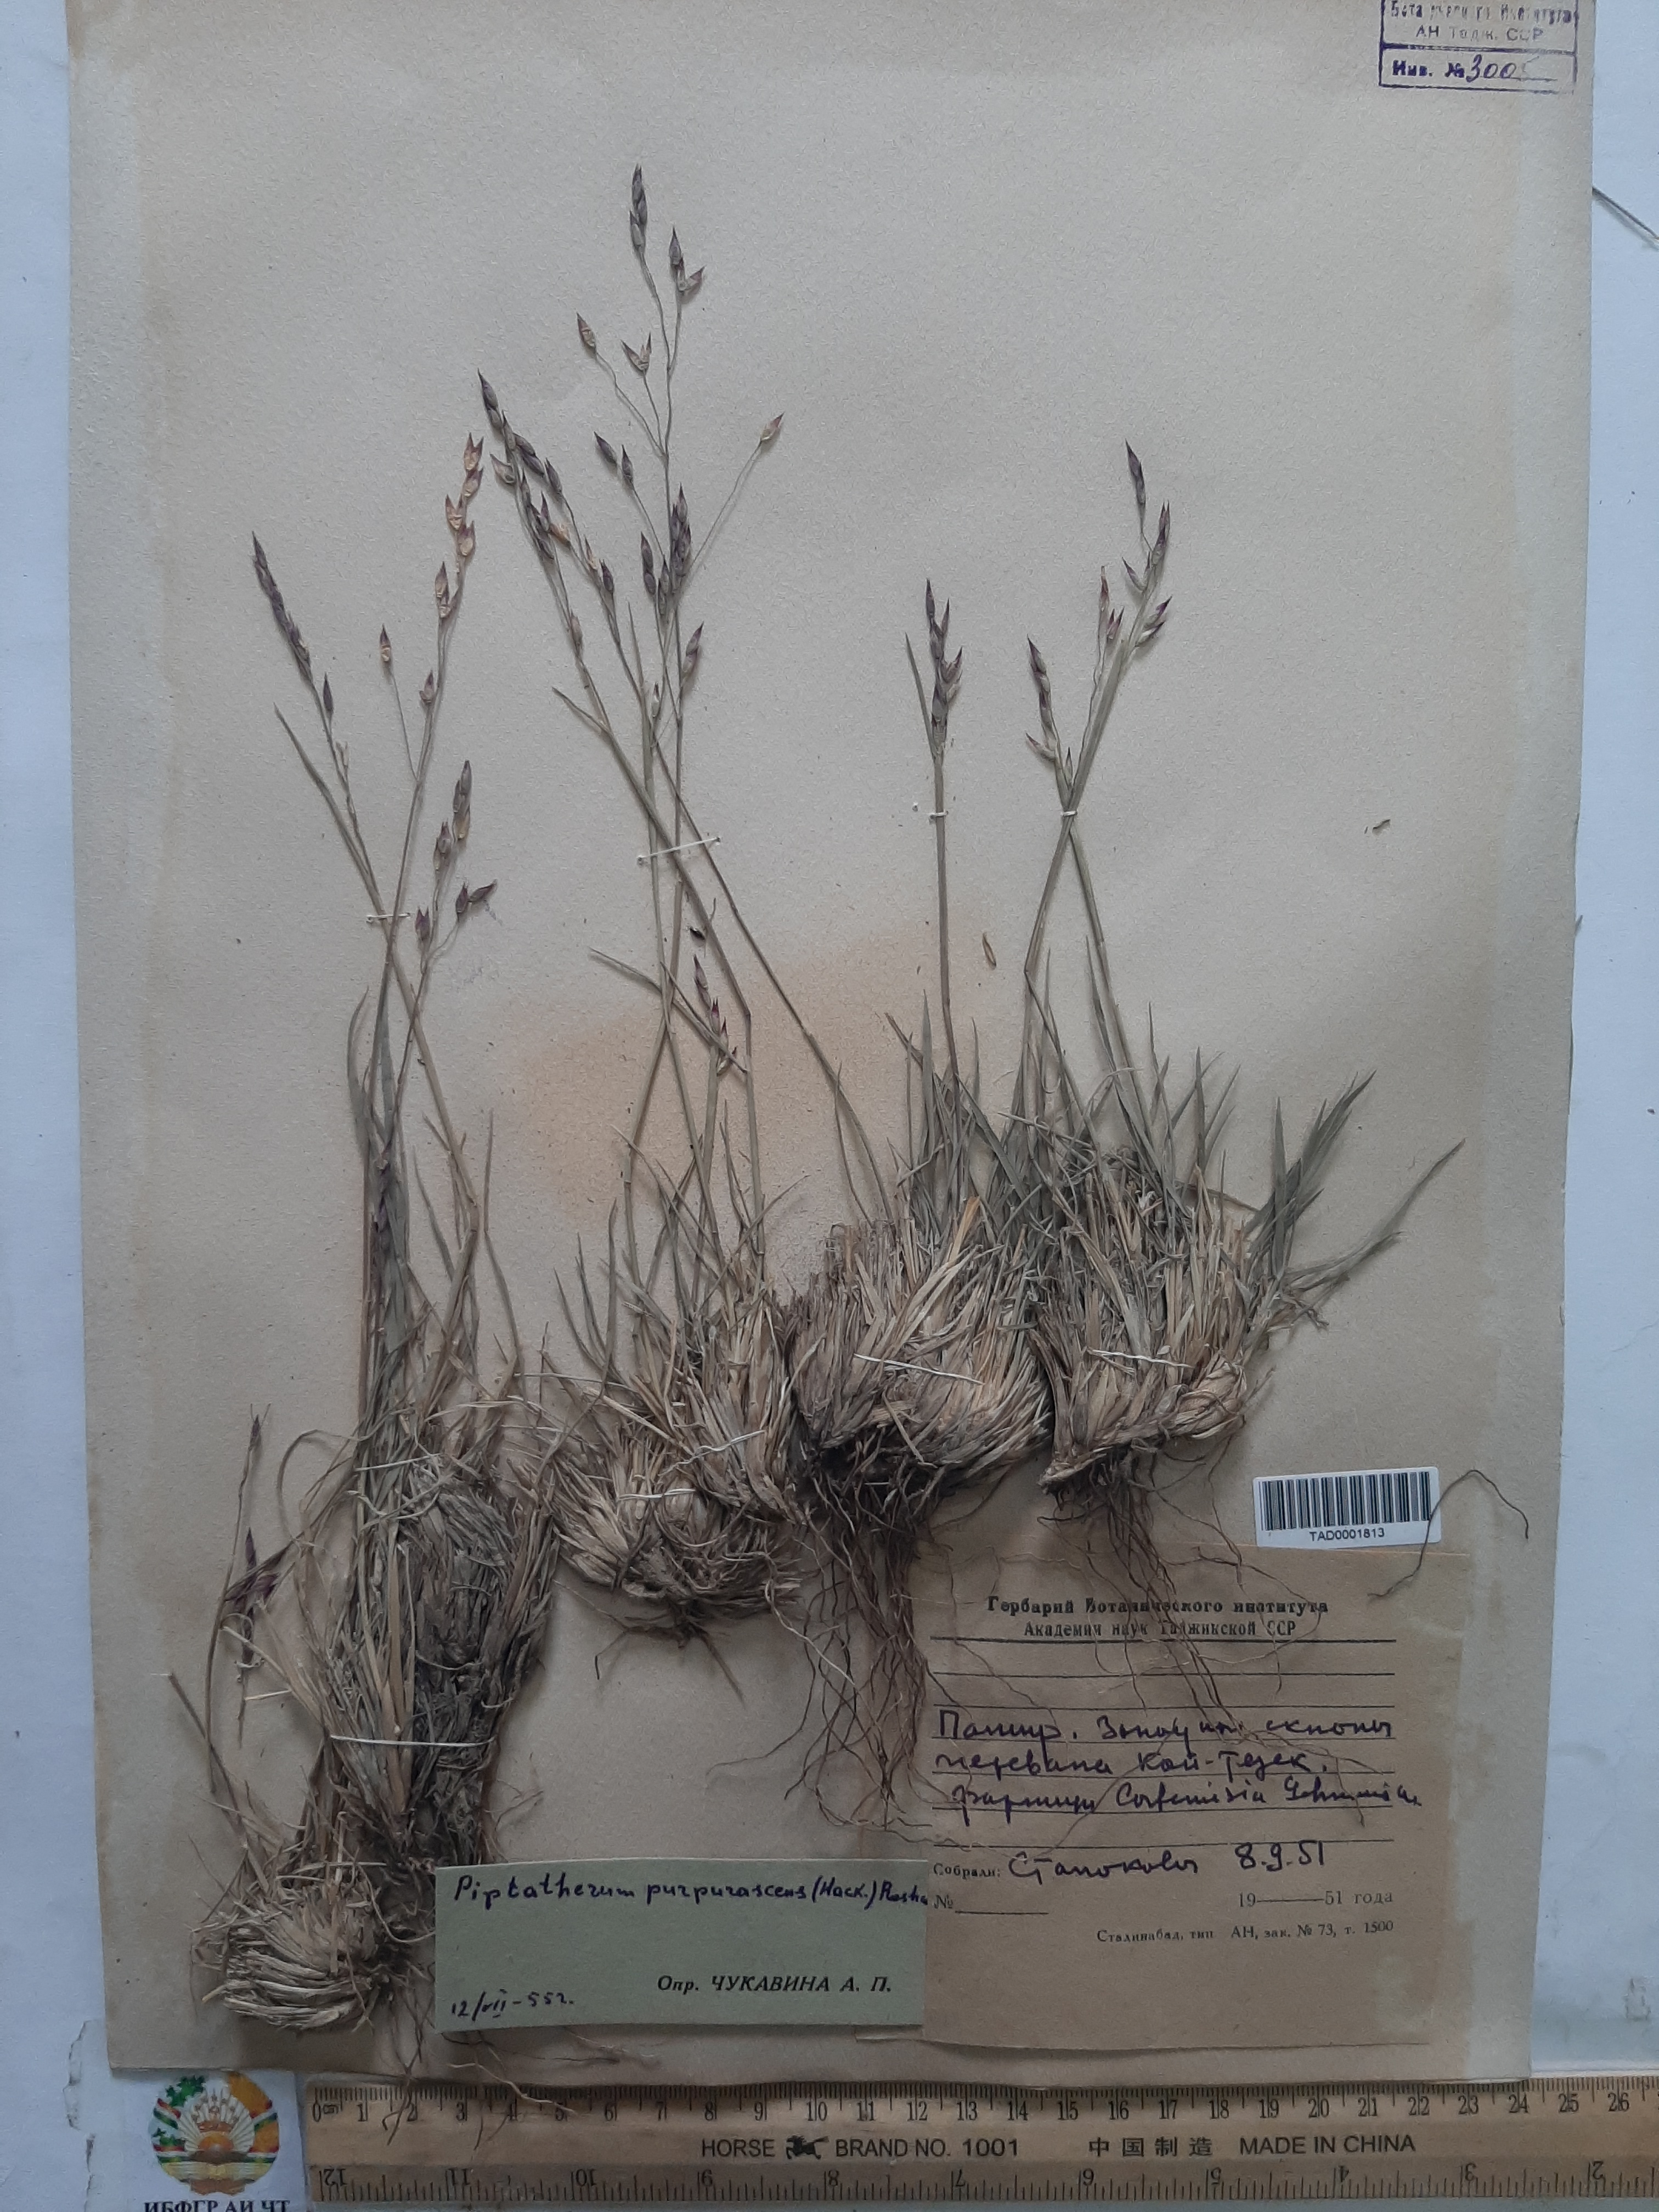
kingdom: Plantae
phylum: Tracheophyta
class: Liliopsida
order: Poales
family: Poaceae
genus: Piptatherum
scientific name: Piptatherum purpurascens
